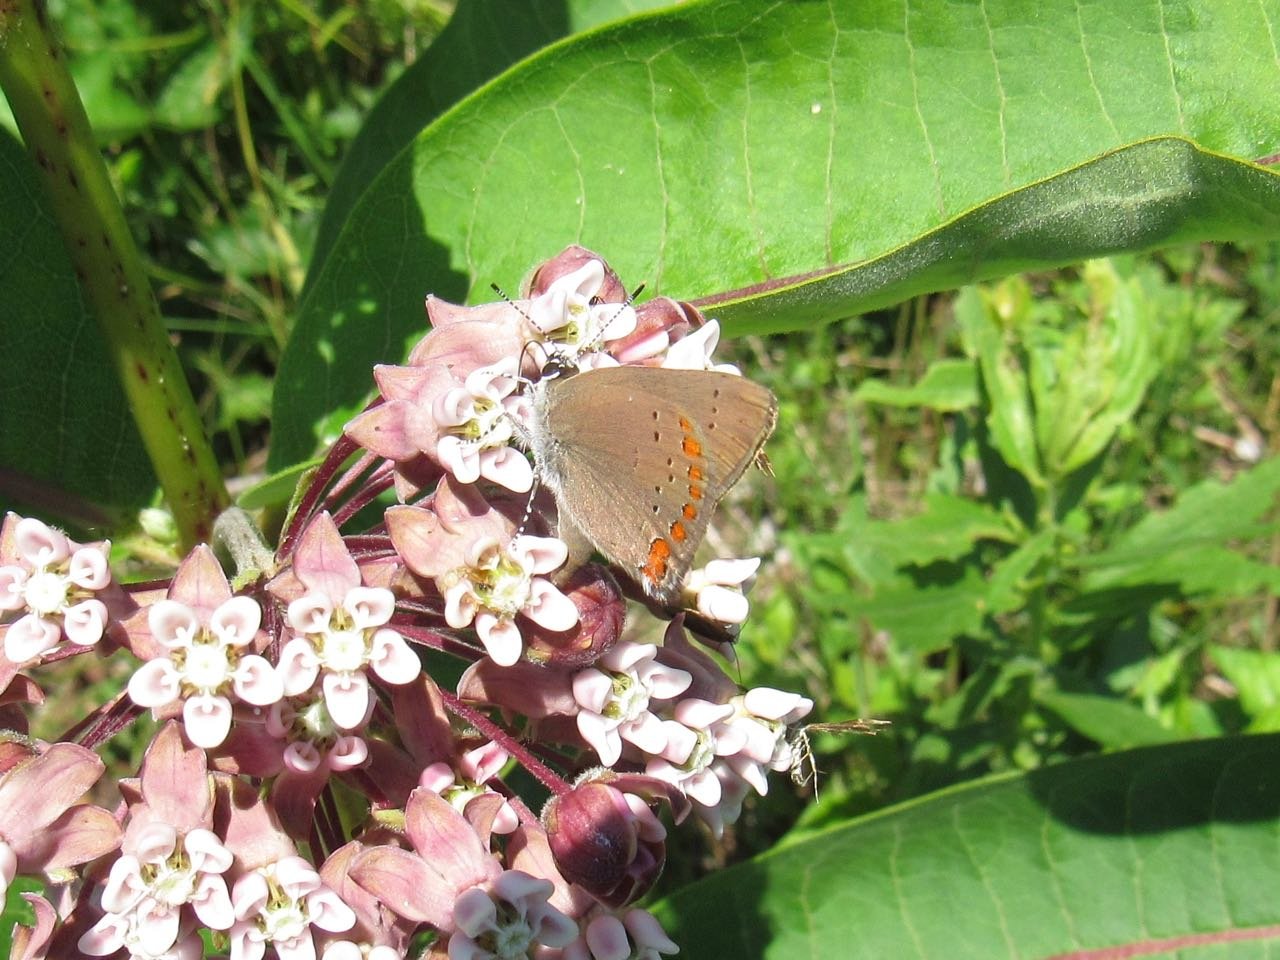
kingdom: Animalia
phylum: Arthropoda
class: Insecta
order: Lepidoptera
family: Lycaenidae
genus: Harkenclenus
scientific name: Harkenclenus titus
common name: Coral Hairstreak
